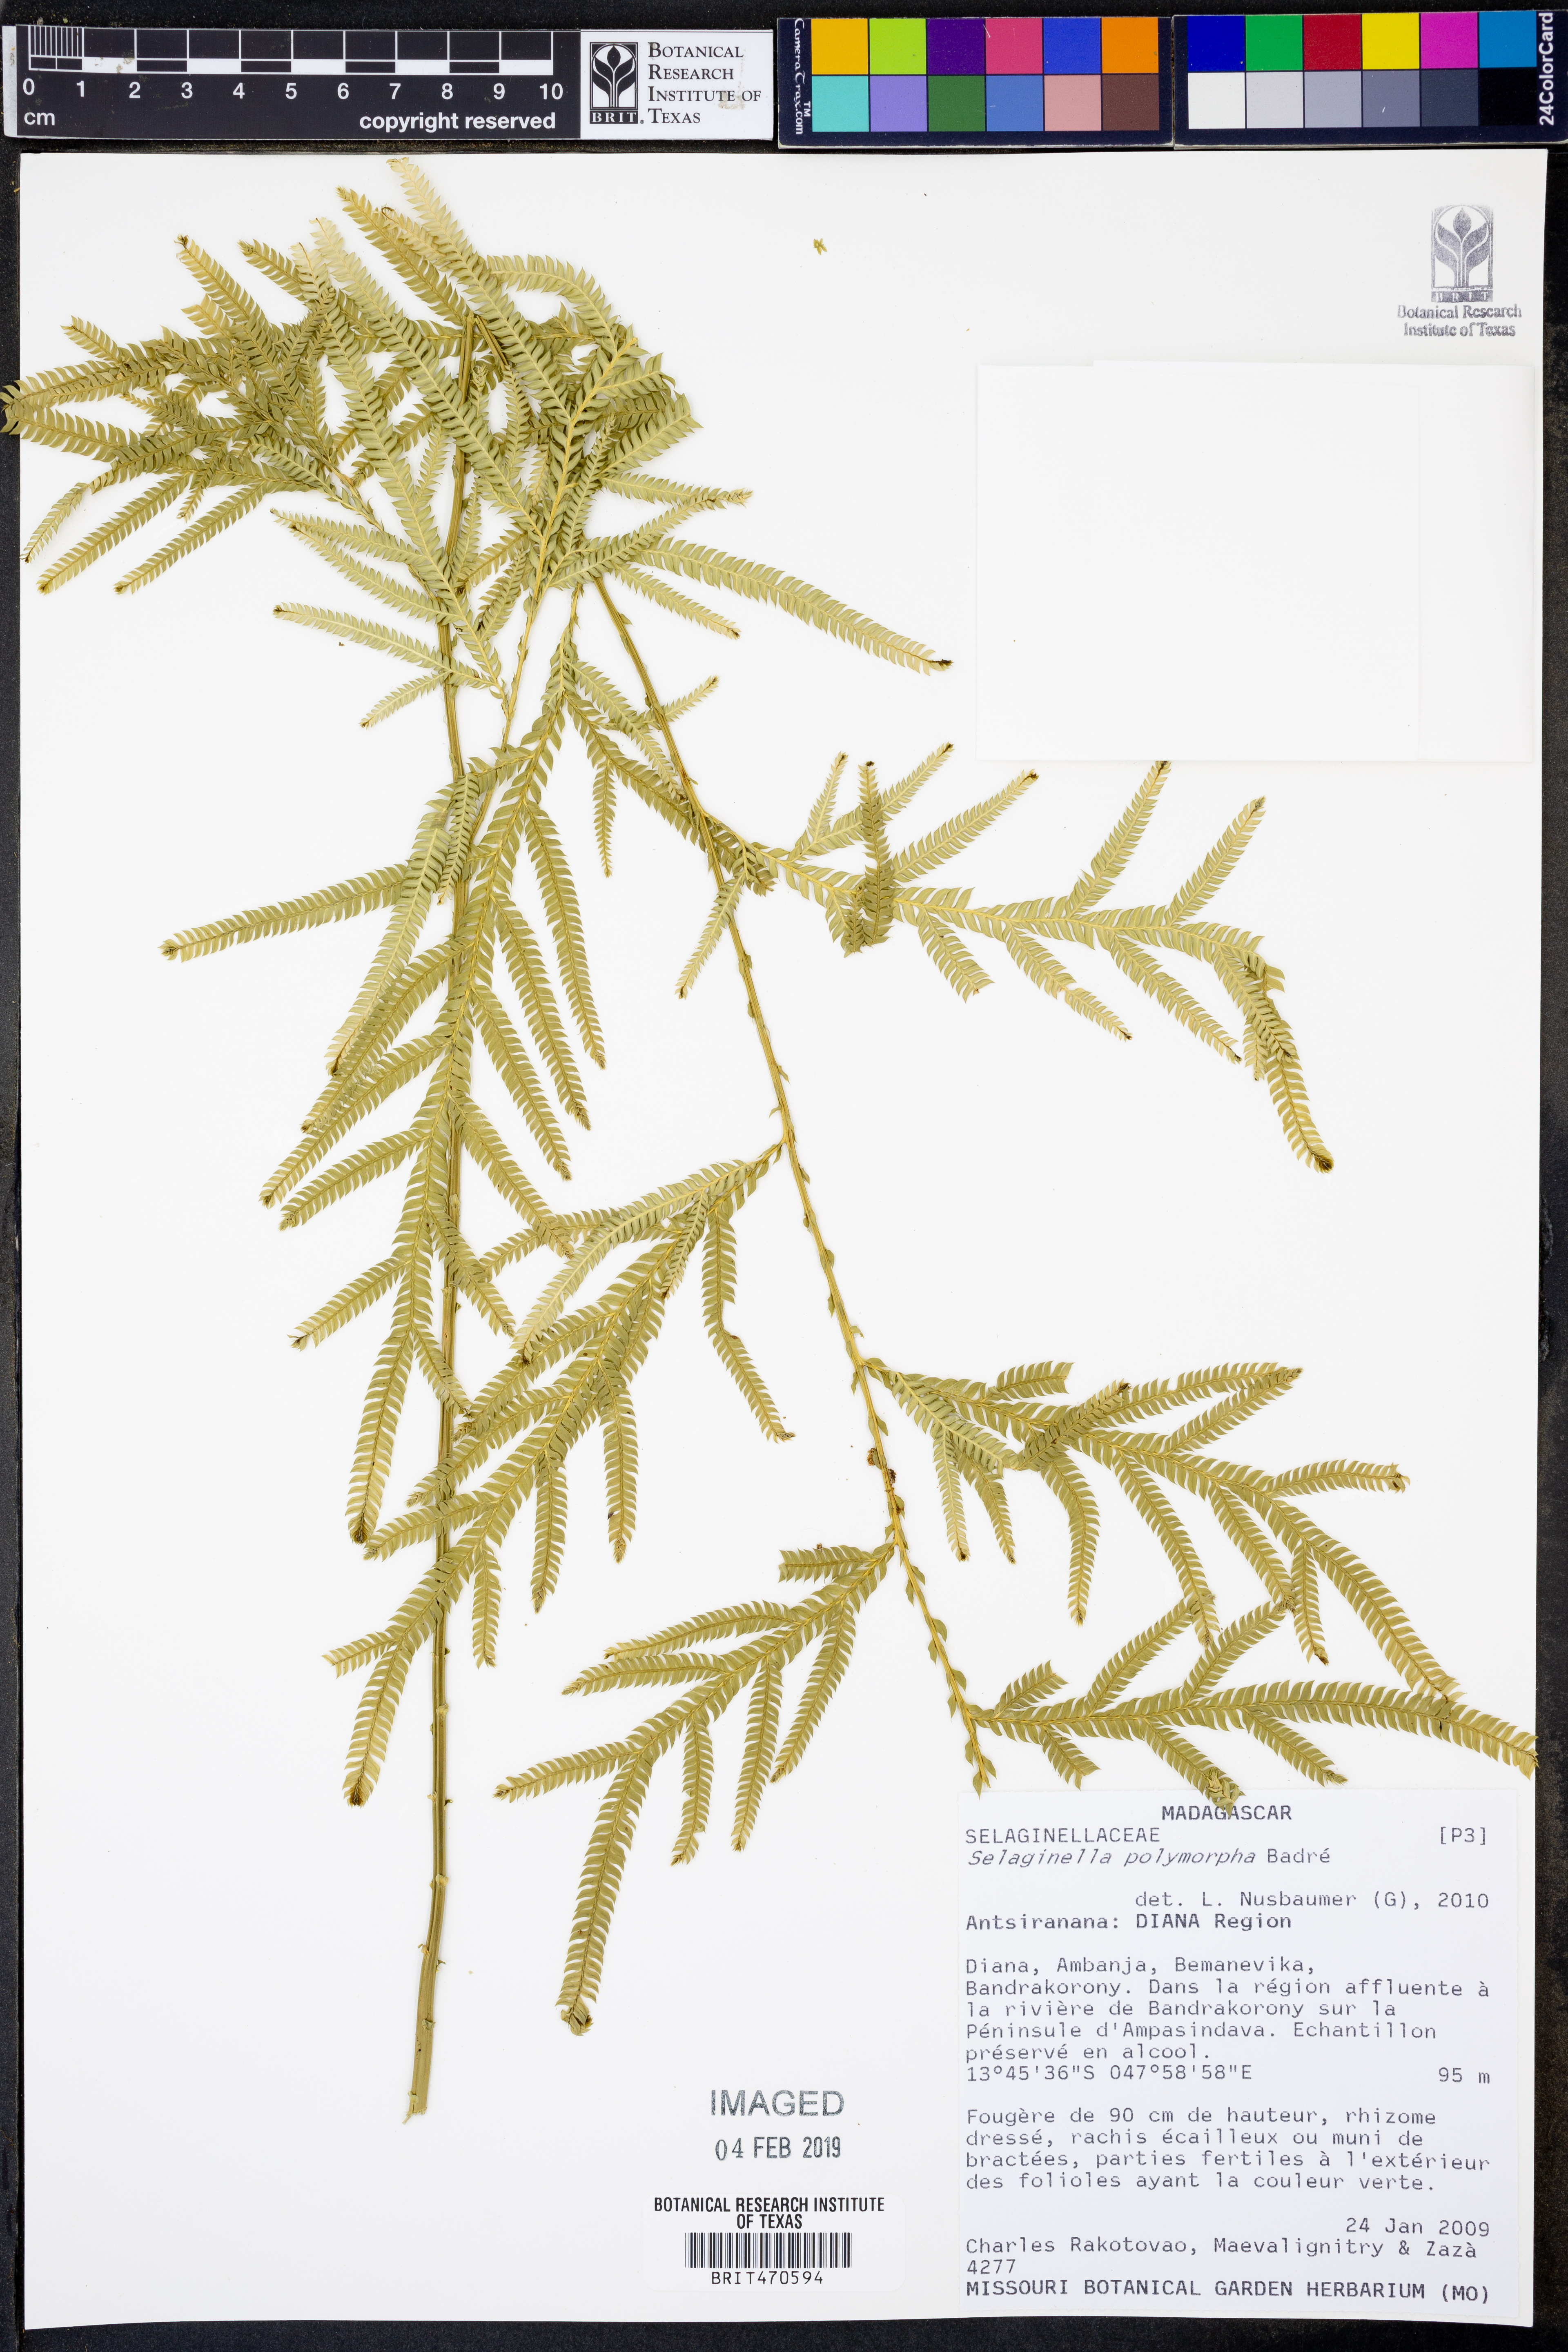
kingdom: Plantae
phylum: Tracheophyta
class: Lycopodiopsida
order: Selaginellales
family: Selaginellaceae
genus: Selaginella
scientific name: Selaginella polymorpha
